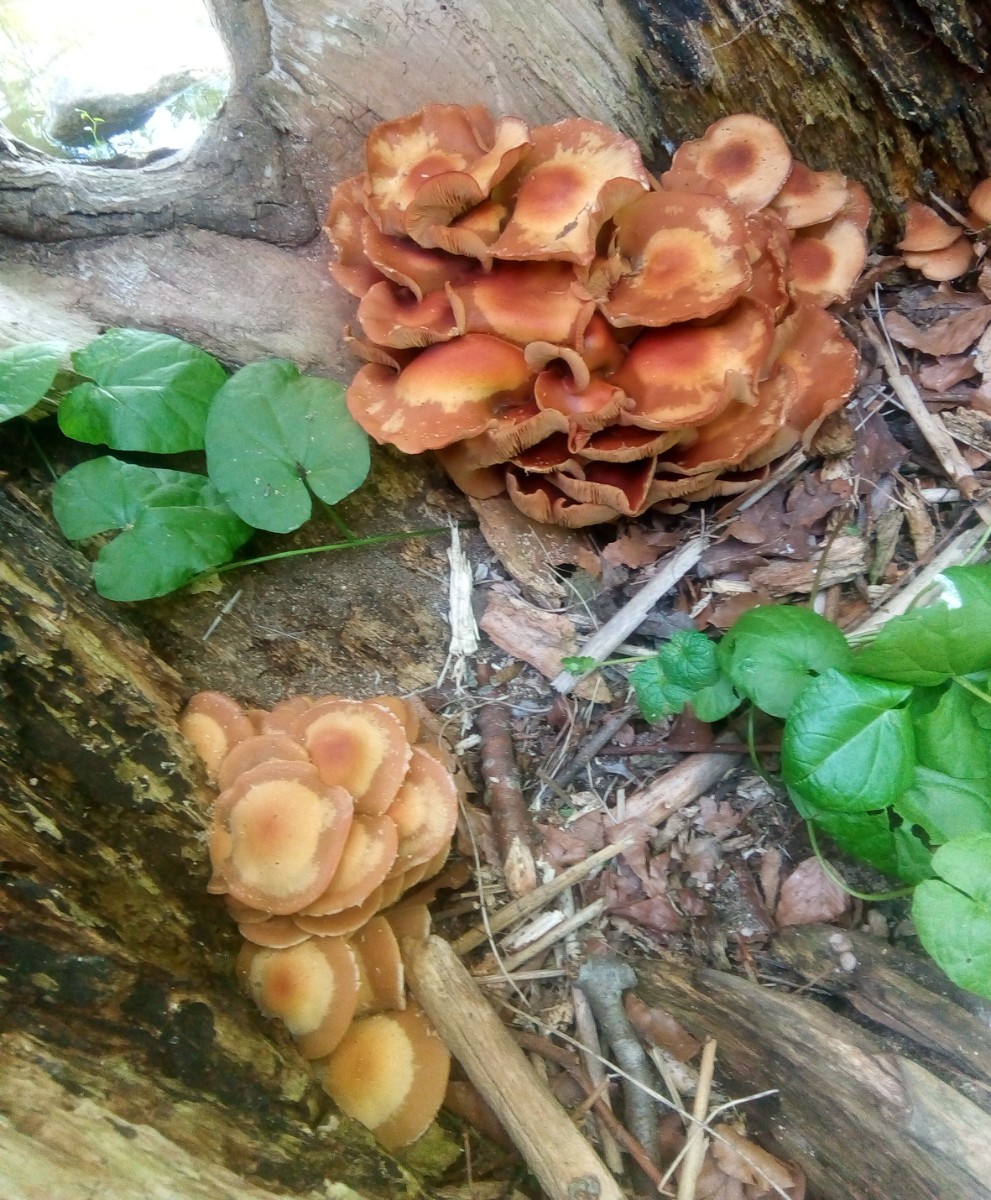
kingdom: Fungi
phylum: Basidiomycota
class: Agaricomycetes
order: Agaricales
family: Strophariaceae
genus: Kuehneromyces
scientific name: Kuehneromyces mutabilis
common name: foranderlig skælhat
